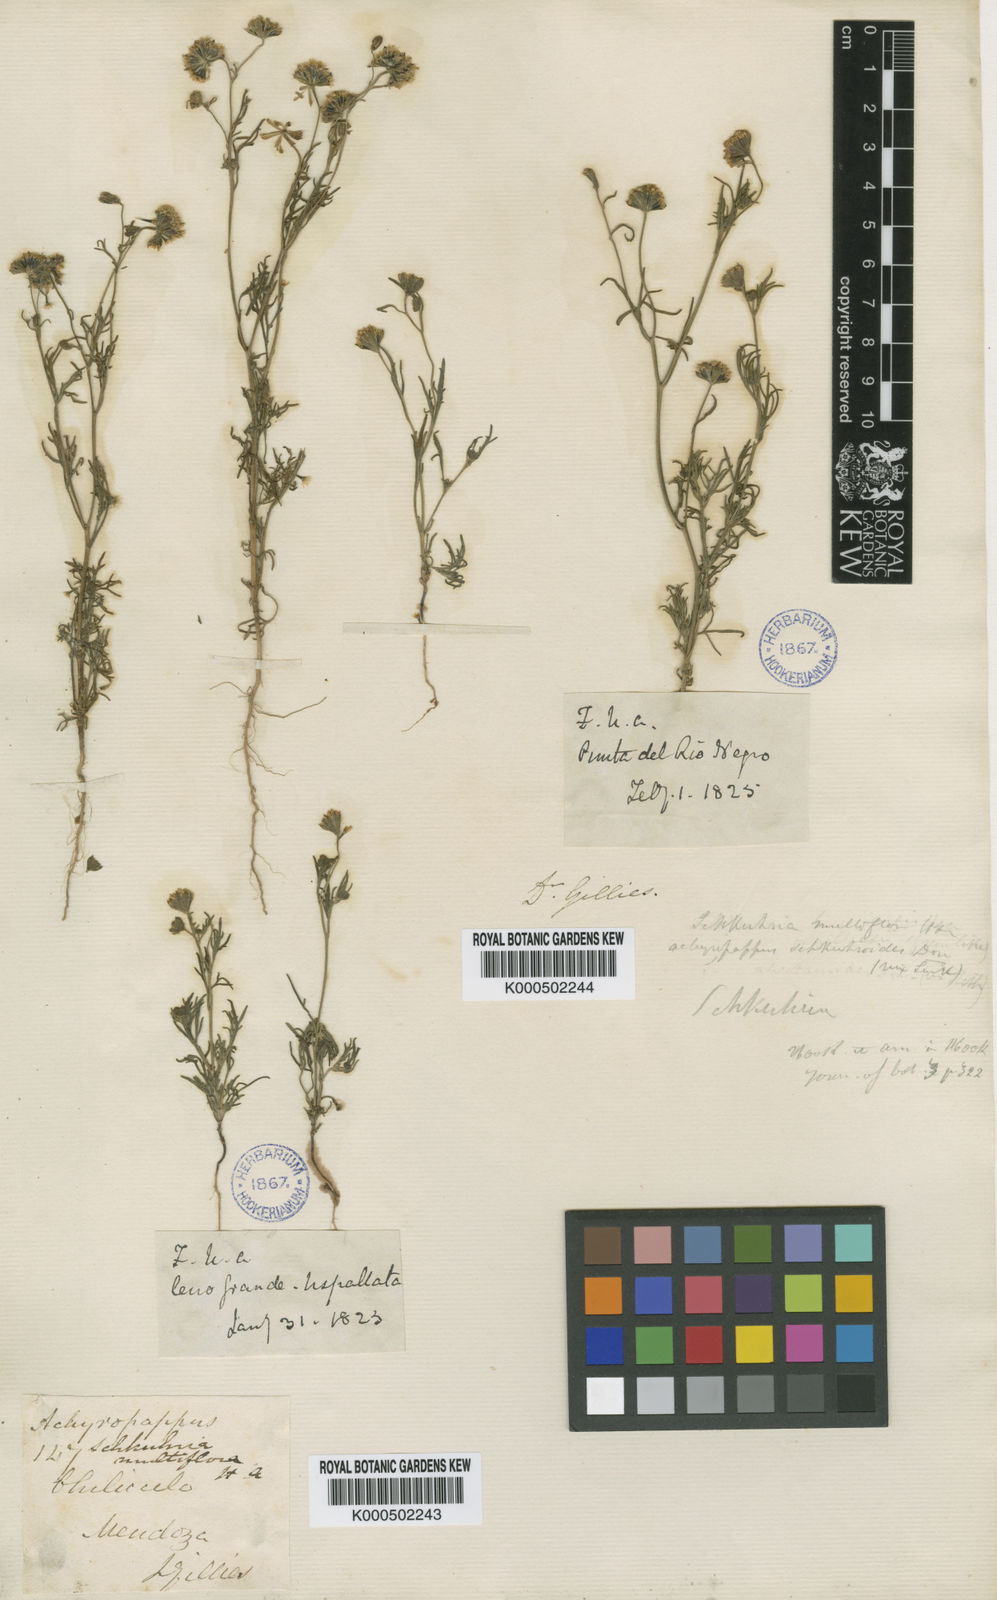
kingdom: Plantae
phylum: Tracheophyta
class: Magnoliopsida
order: Asterales
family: Asteraceae
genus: Picradeniopsis
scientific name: Picradeniopsis multiflora
